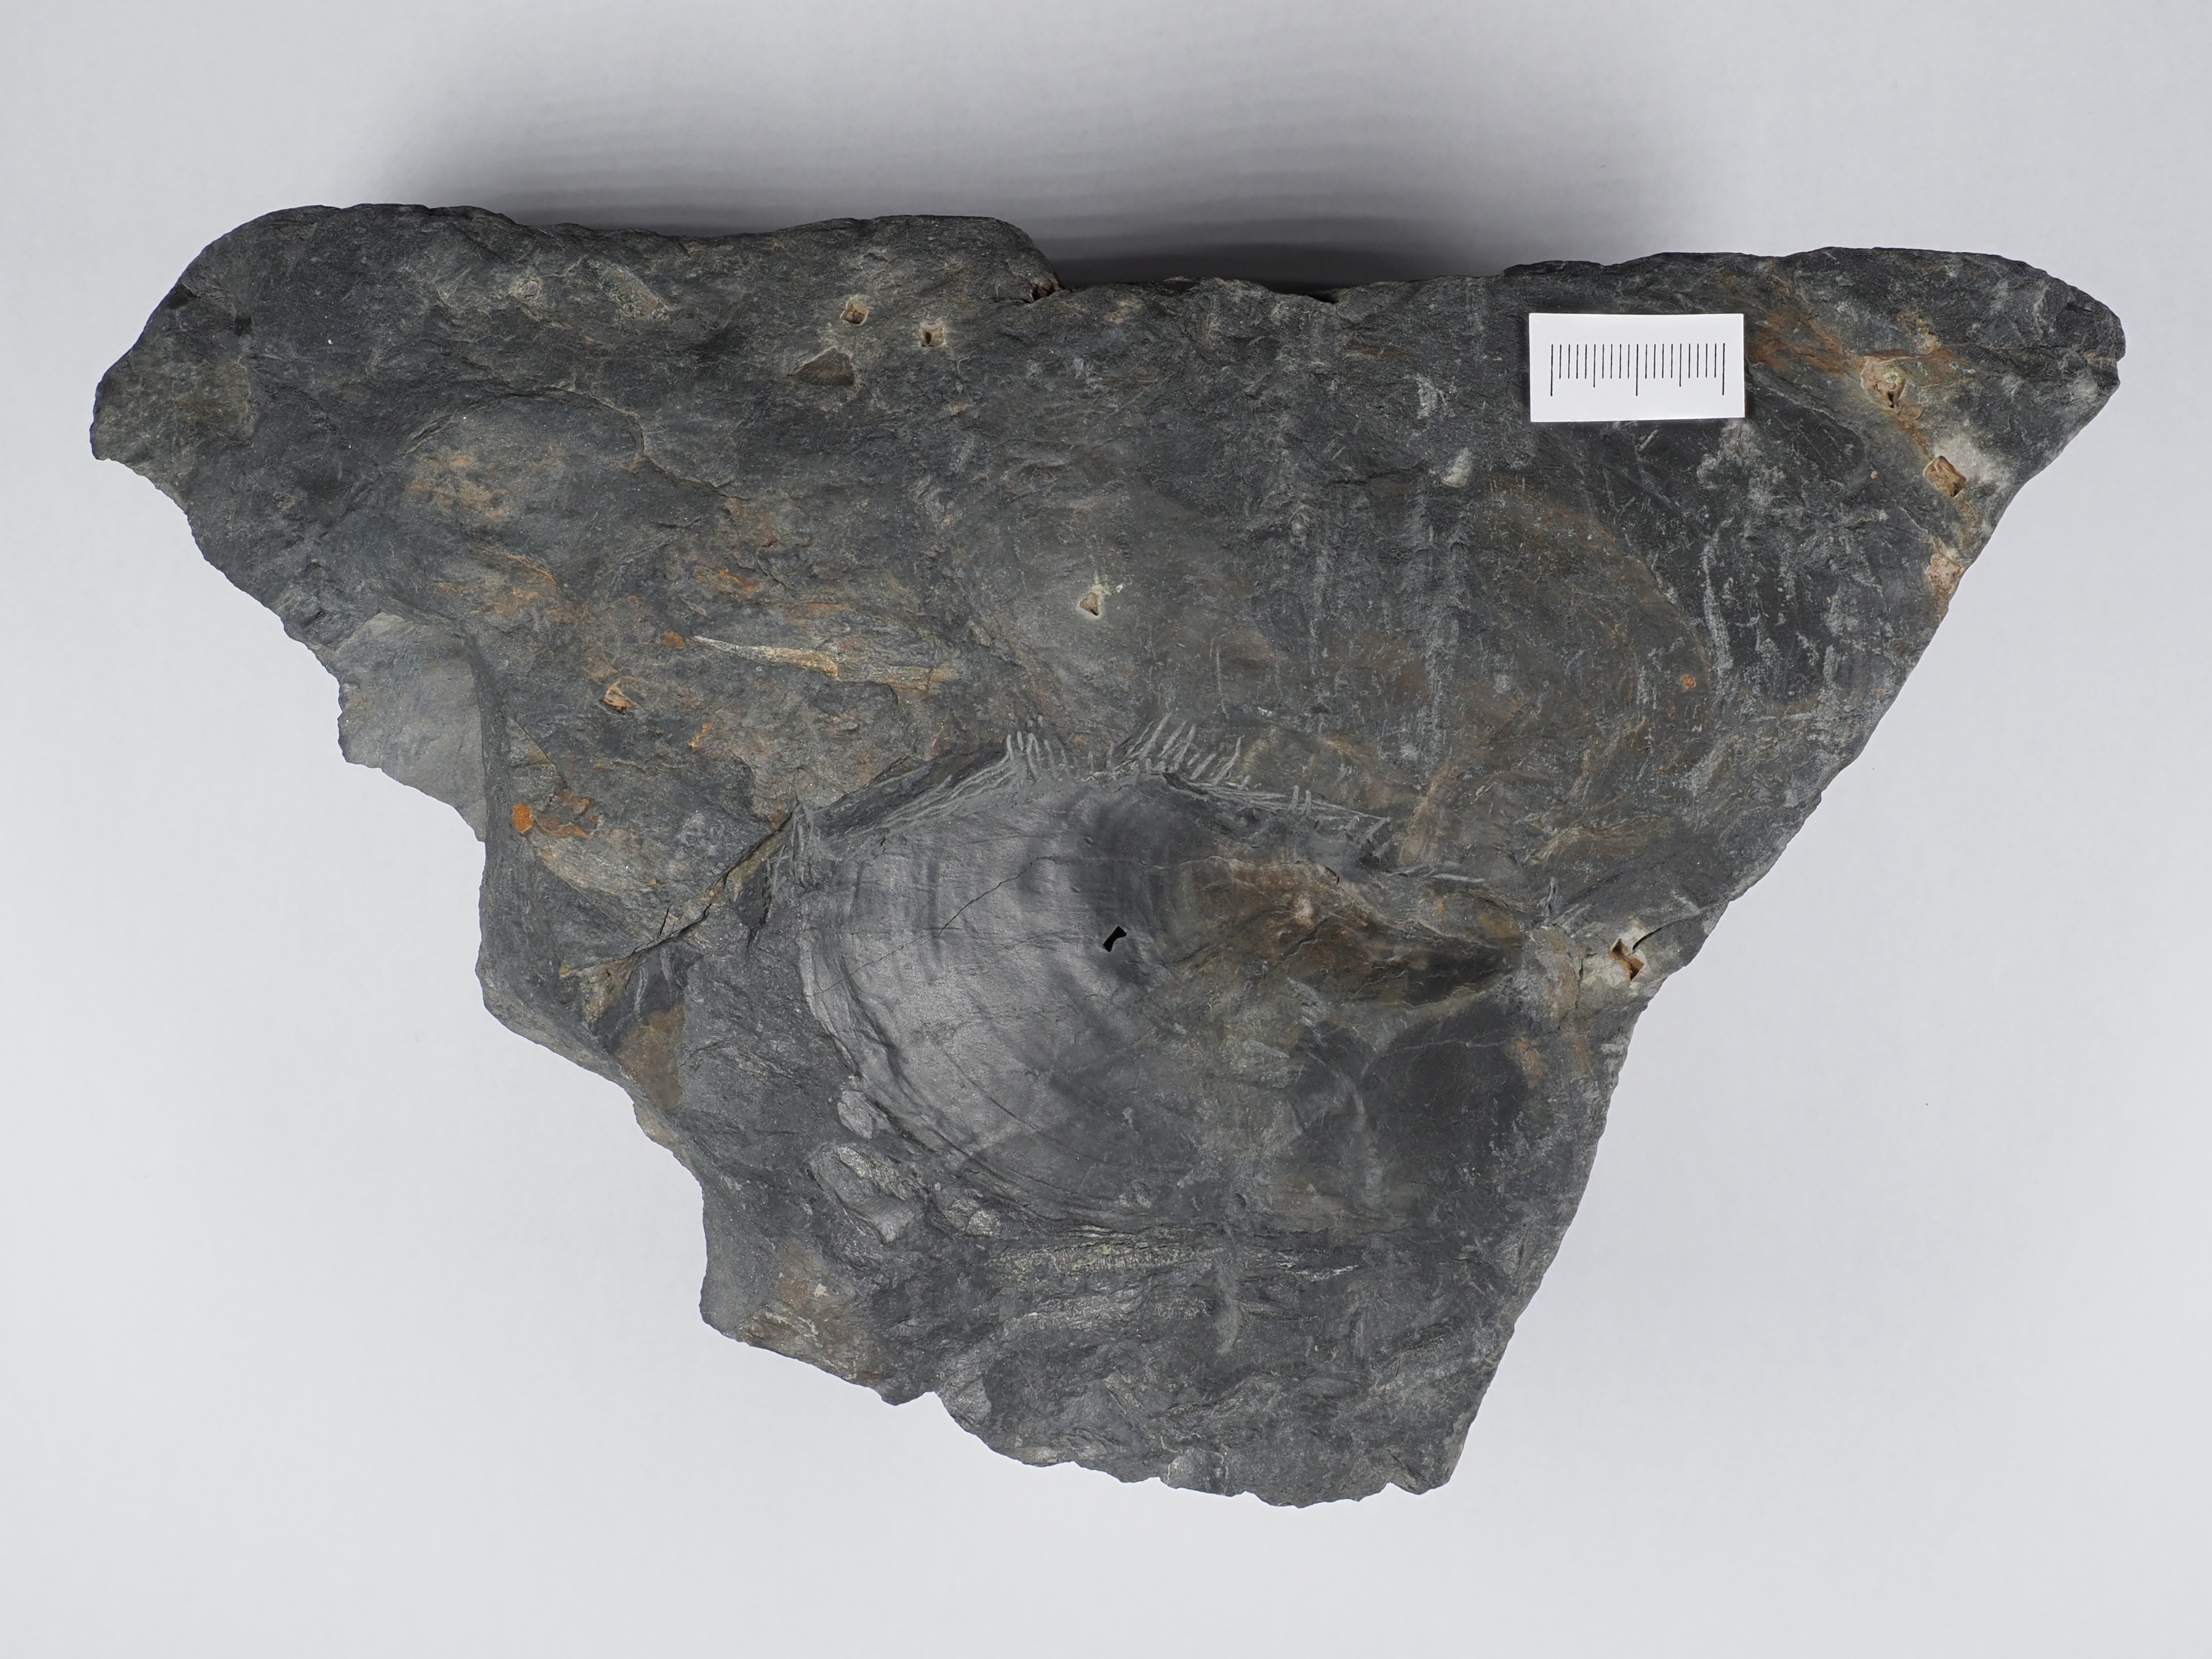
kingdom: Animalia
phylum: Mollusca
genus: Klinoptera
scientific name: Klinoptera
